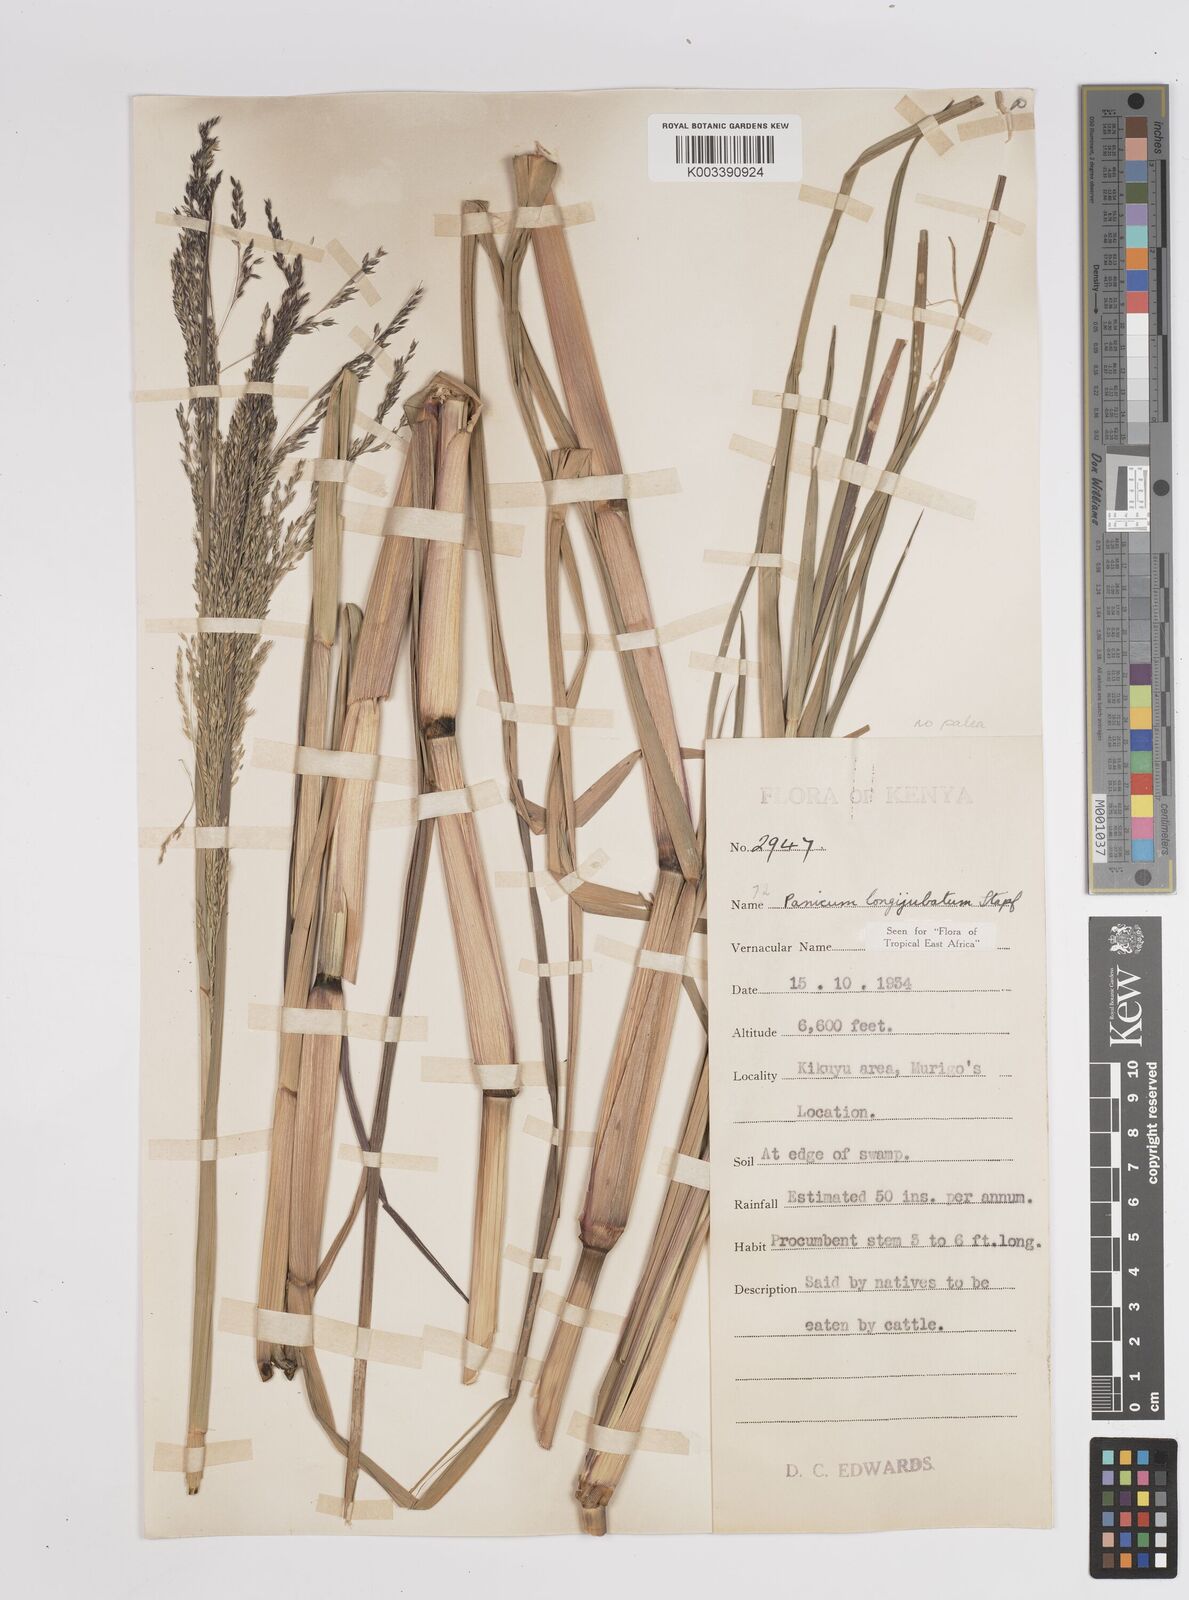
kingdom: Plantae
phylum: Tracheophyta
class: Liliopsida
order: Poales
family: Poaceae
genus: Panicum
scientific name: Panicum subalbidum
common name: Elbow buffalo grass
